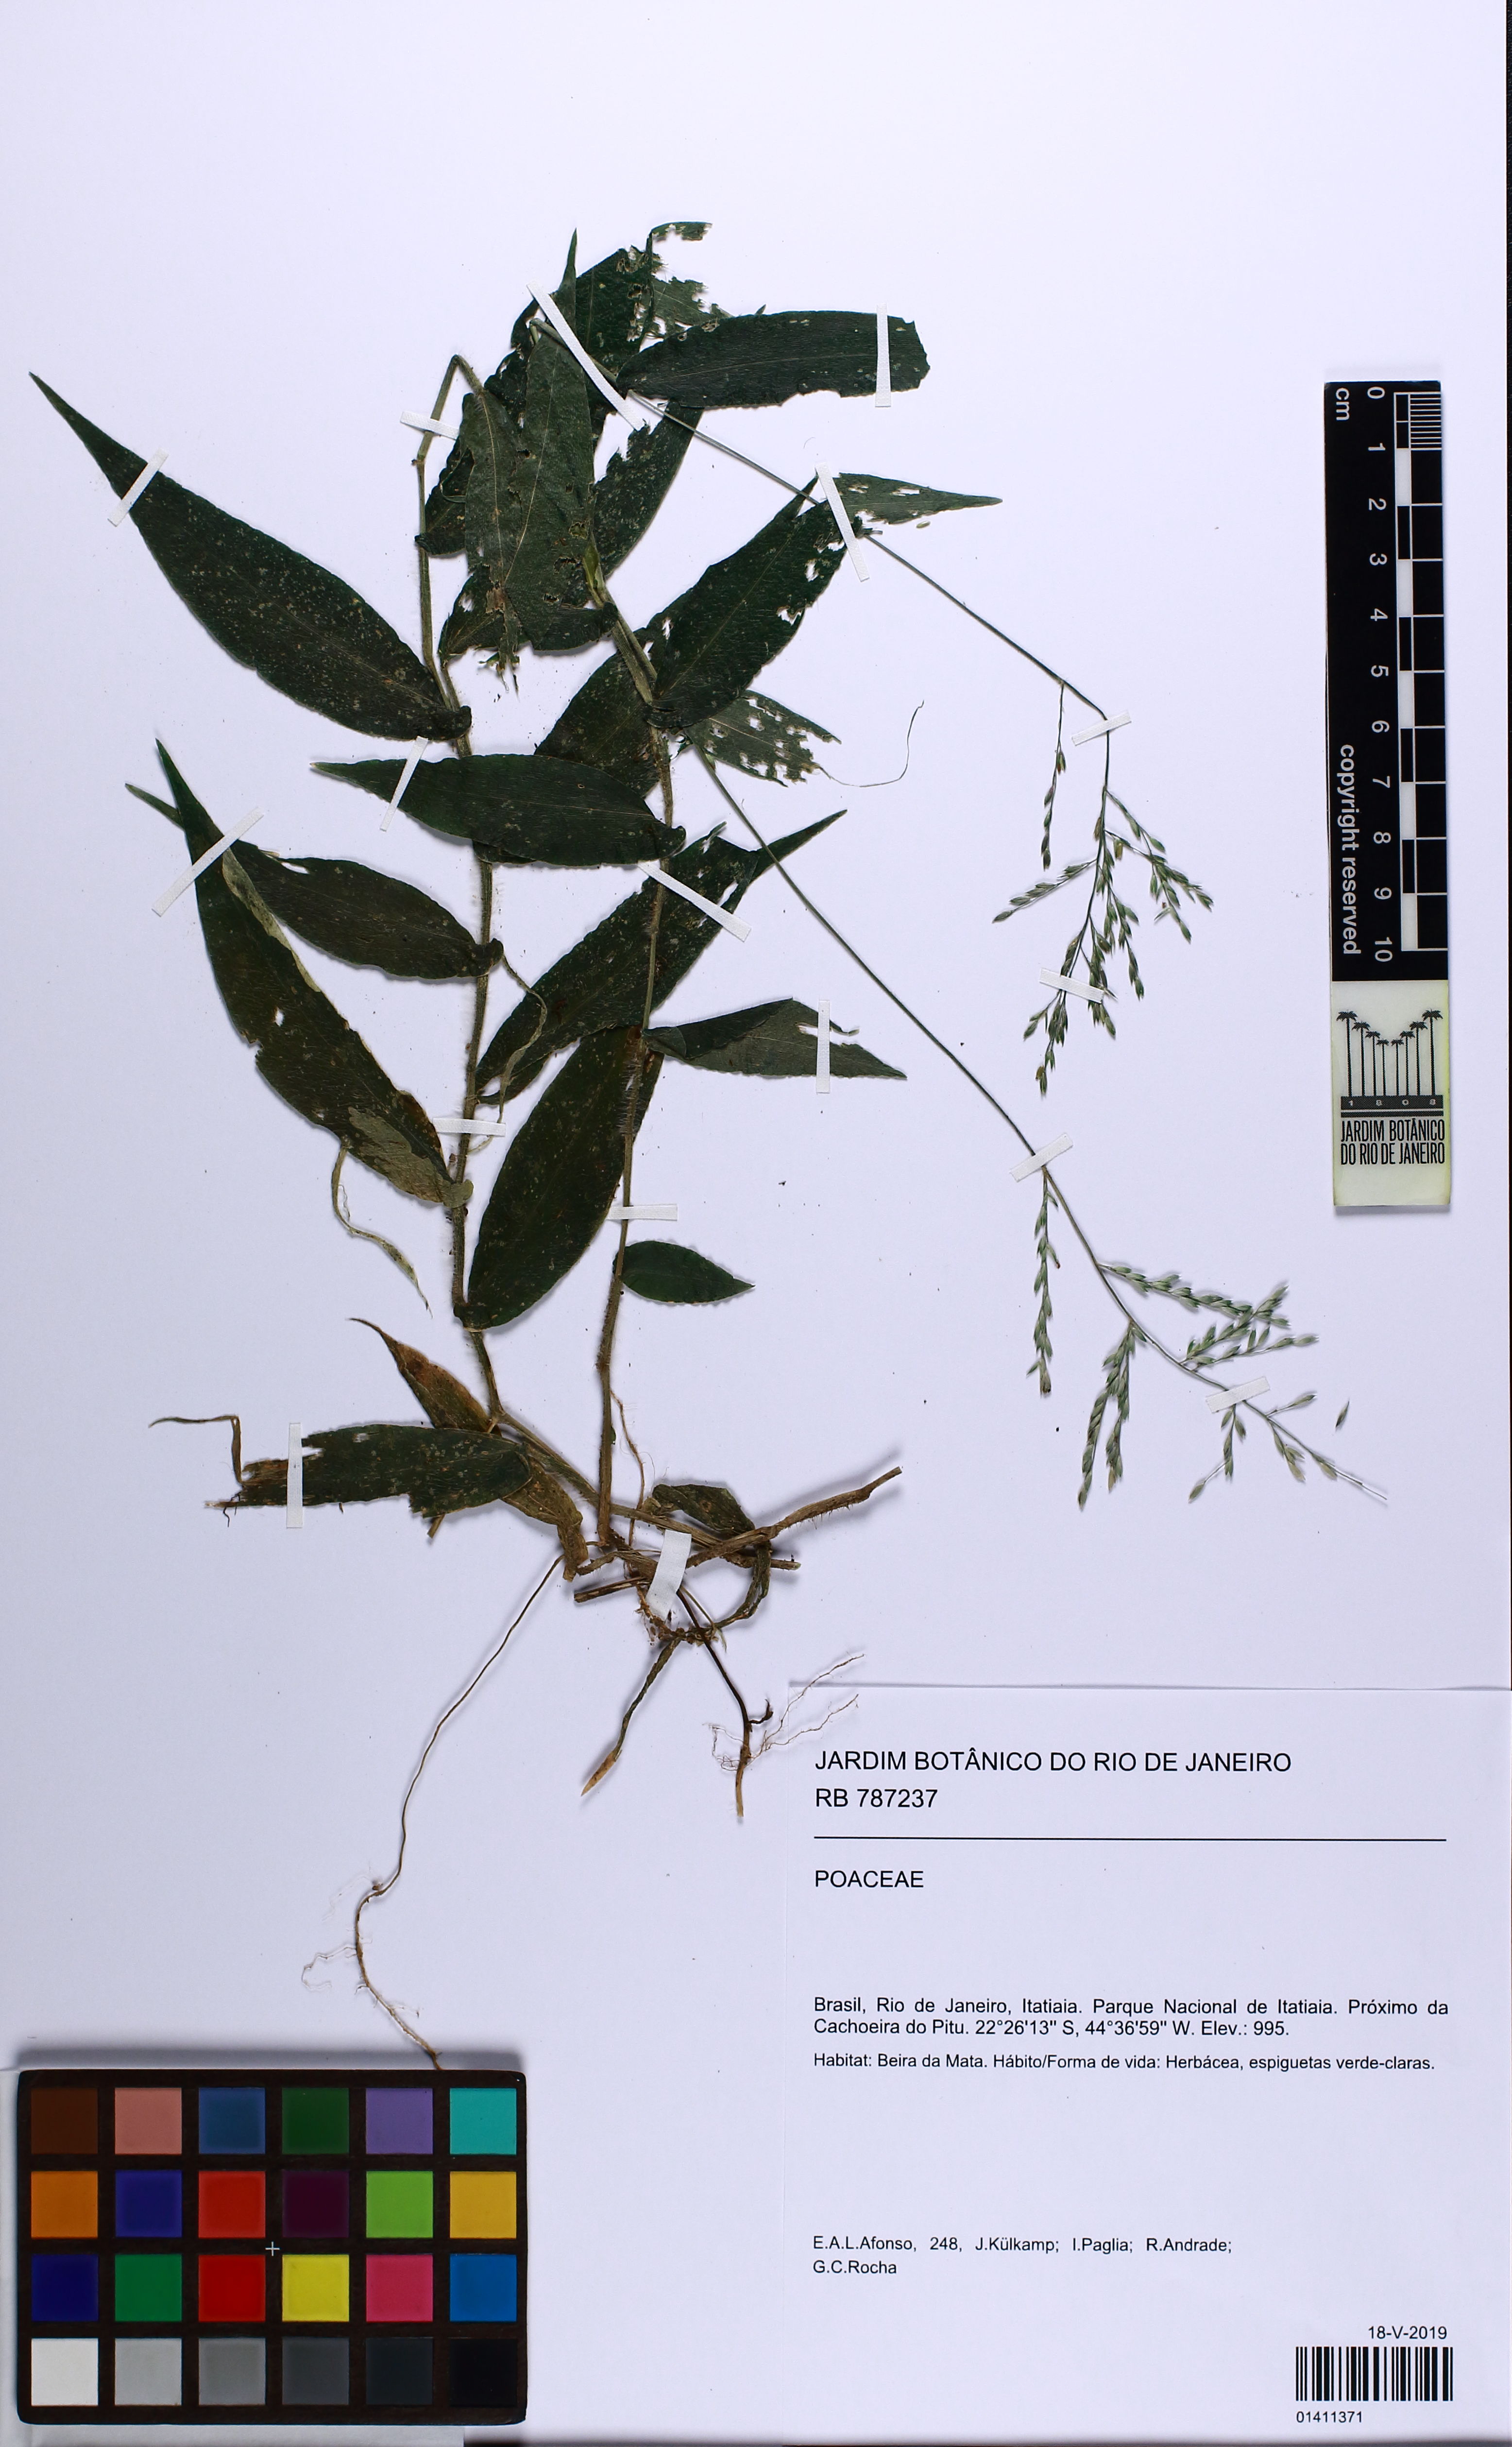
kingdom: Plantae
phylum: Tracheophyta
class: Liliopsida
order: Poales
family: Poaceae
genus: Ichnanthus
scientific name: Ichnanthus
